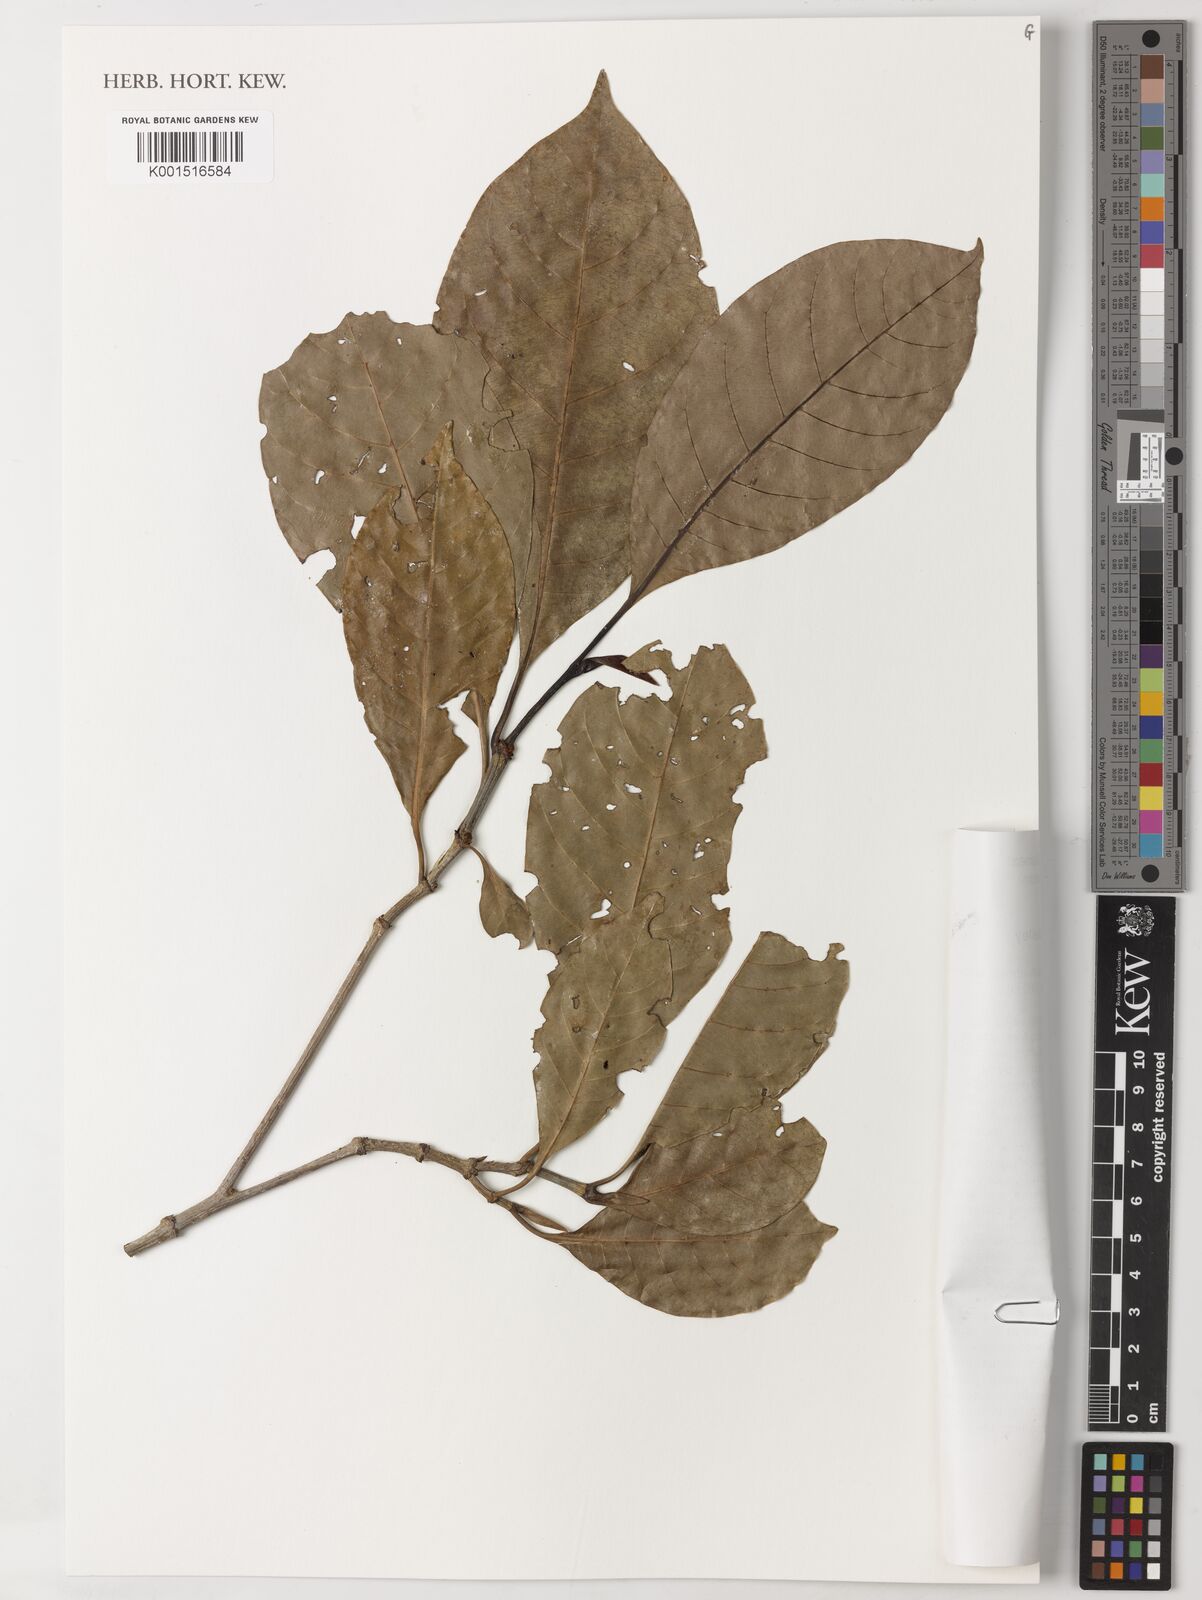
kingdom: Plantae
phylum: Tracheophyta
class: Magnoliopsida
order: Gentianales
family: Rubiaceae
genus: Gardenia
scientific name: Gardenia lamingtonii
